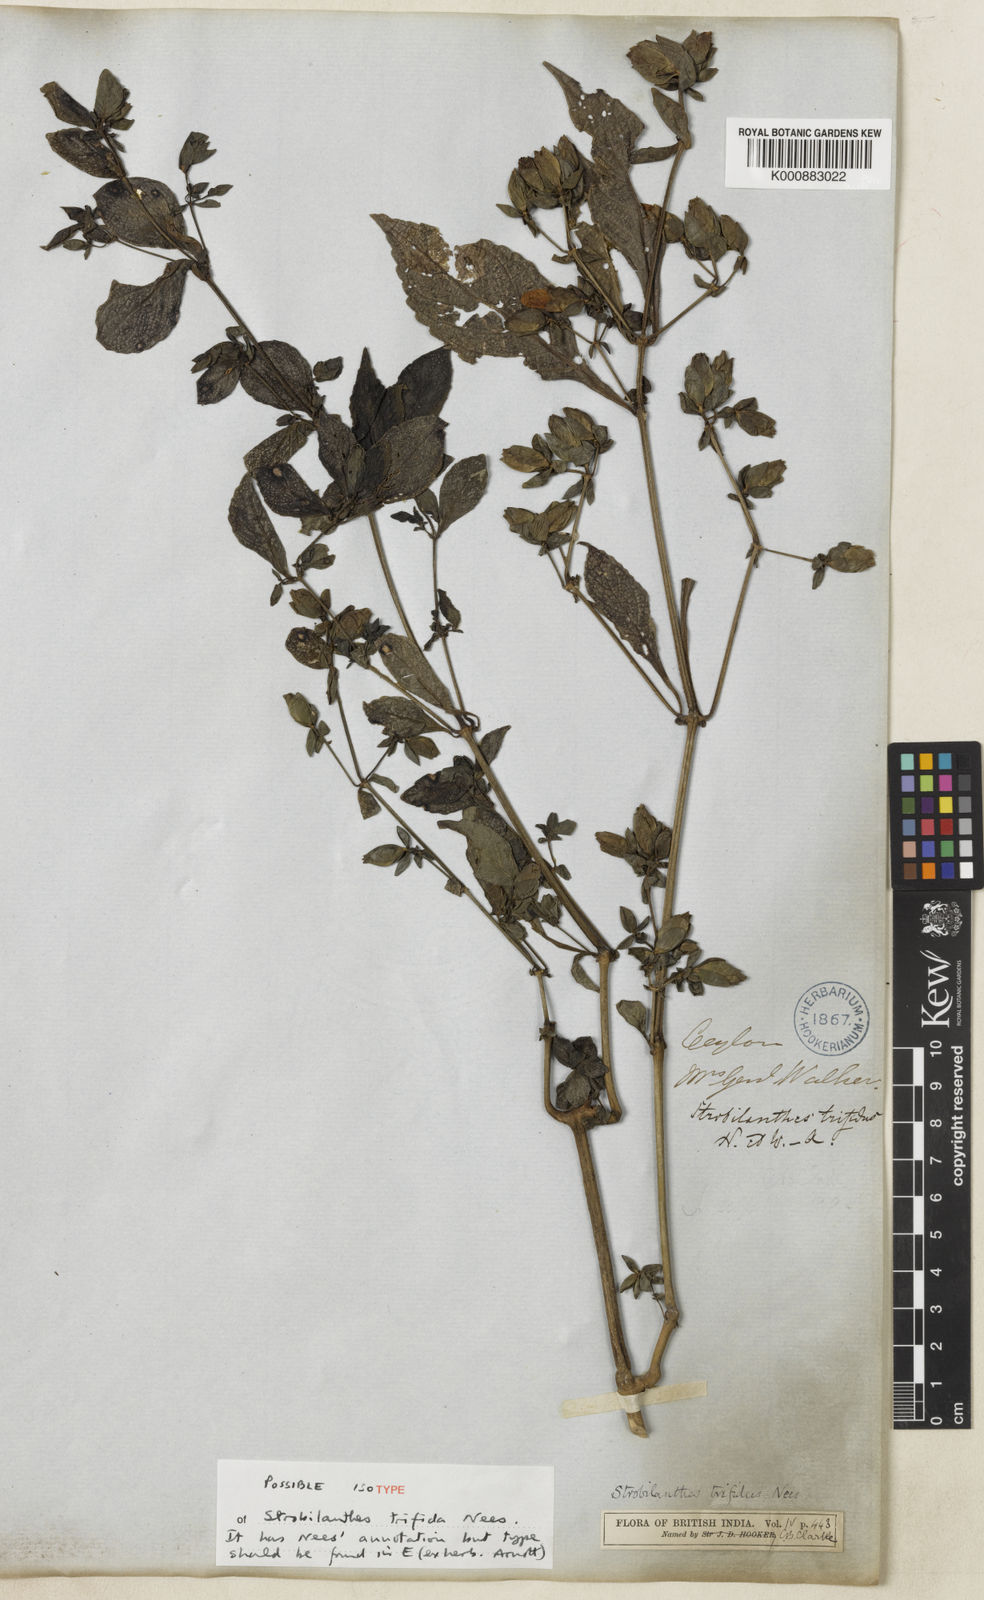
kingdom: Plantae
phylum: Tracheophyta
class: Magnoliopsida
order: Lamiales
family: Acanthaceae
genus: Strobilanthes
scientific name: Strobilanthes
